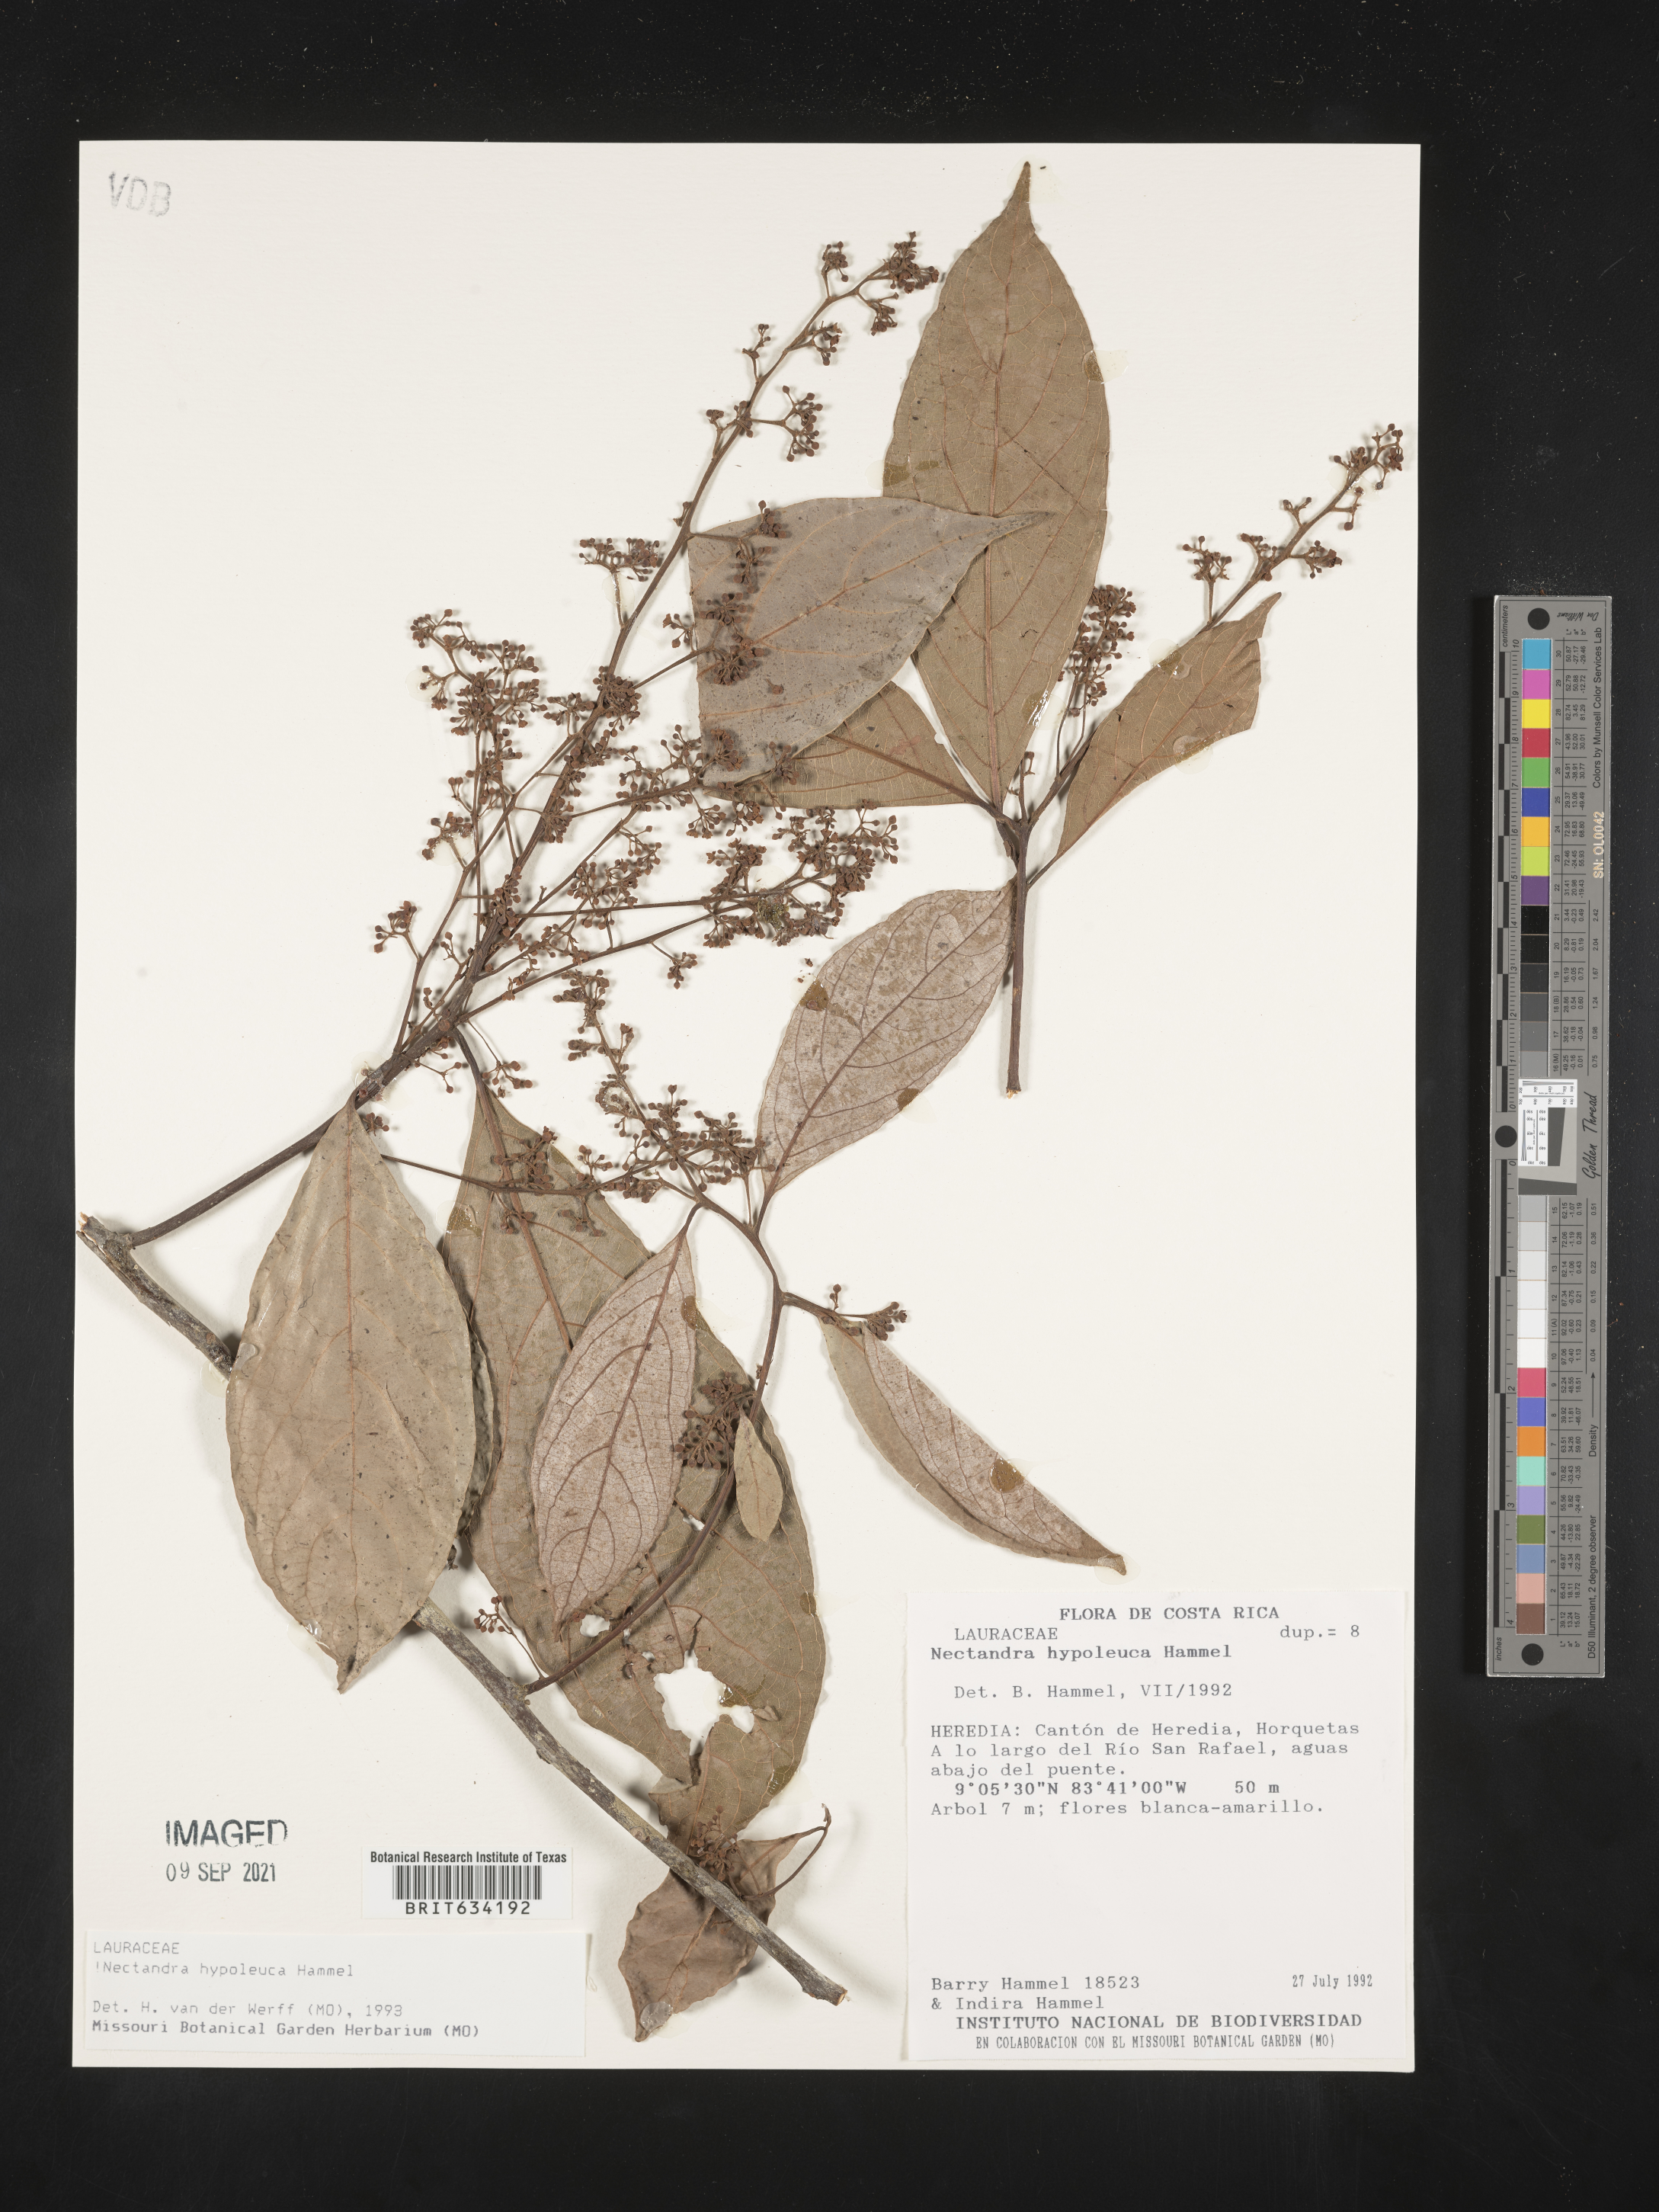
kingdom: Plantae
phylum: Tracheophyta
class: Magnoliopsida
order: Laurales
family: Lauraceae
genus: Nectandra
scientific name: Nectandra
